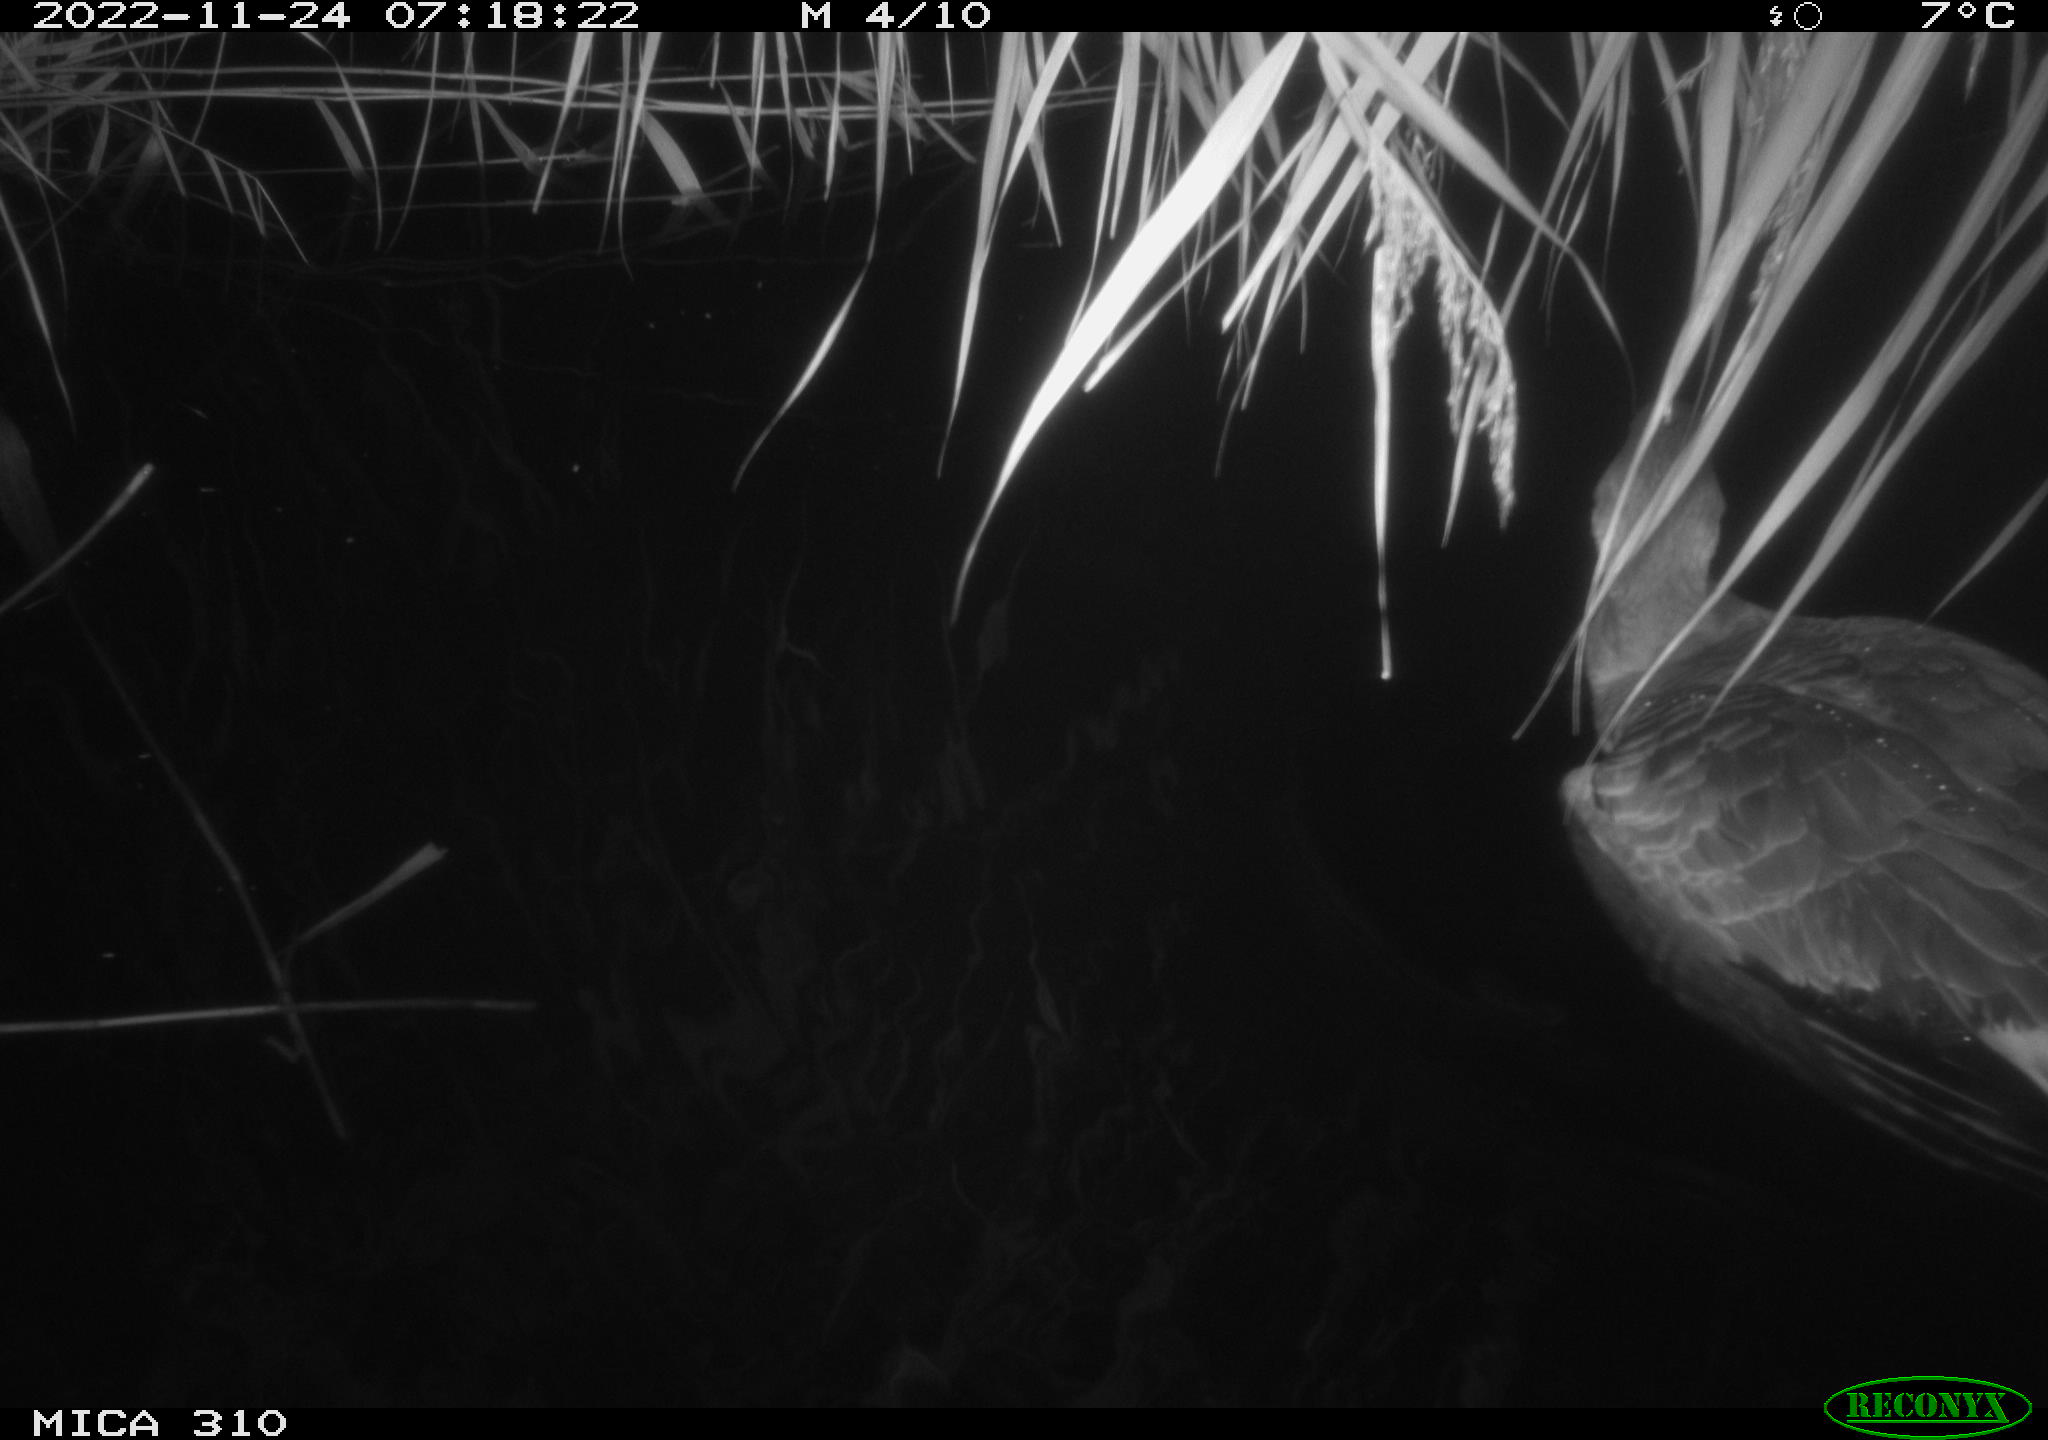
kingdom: Animalia
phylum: Chordata
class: Aves
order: Anseriformes
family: Anatidae
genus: Anser
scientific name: Anser anser
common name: Greylag goose
